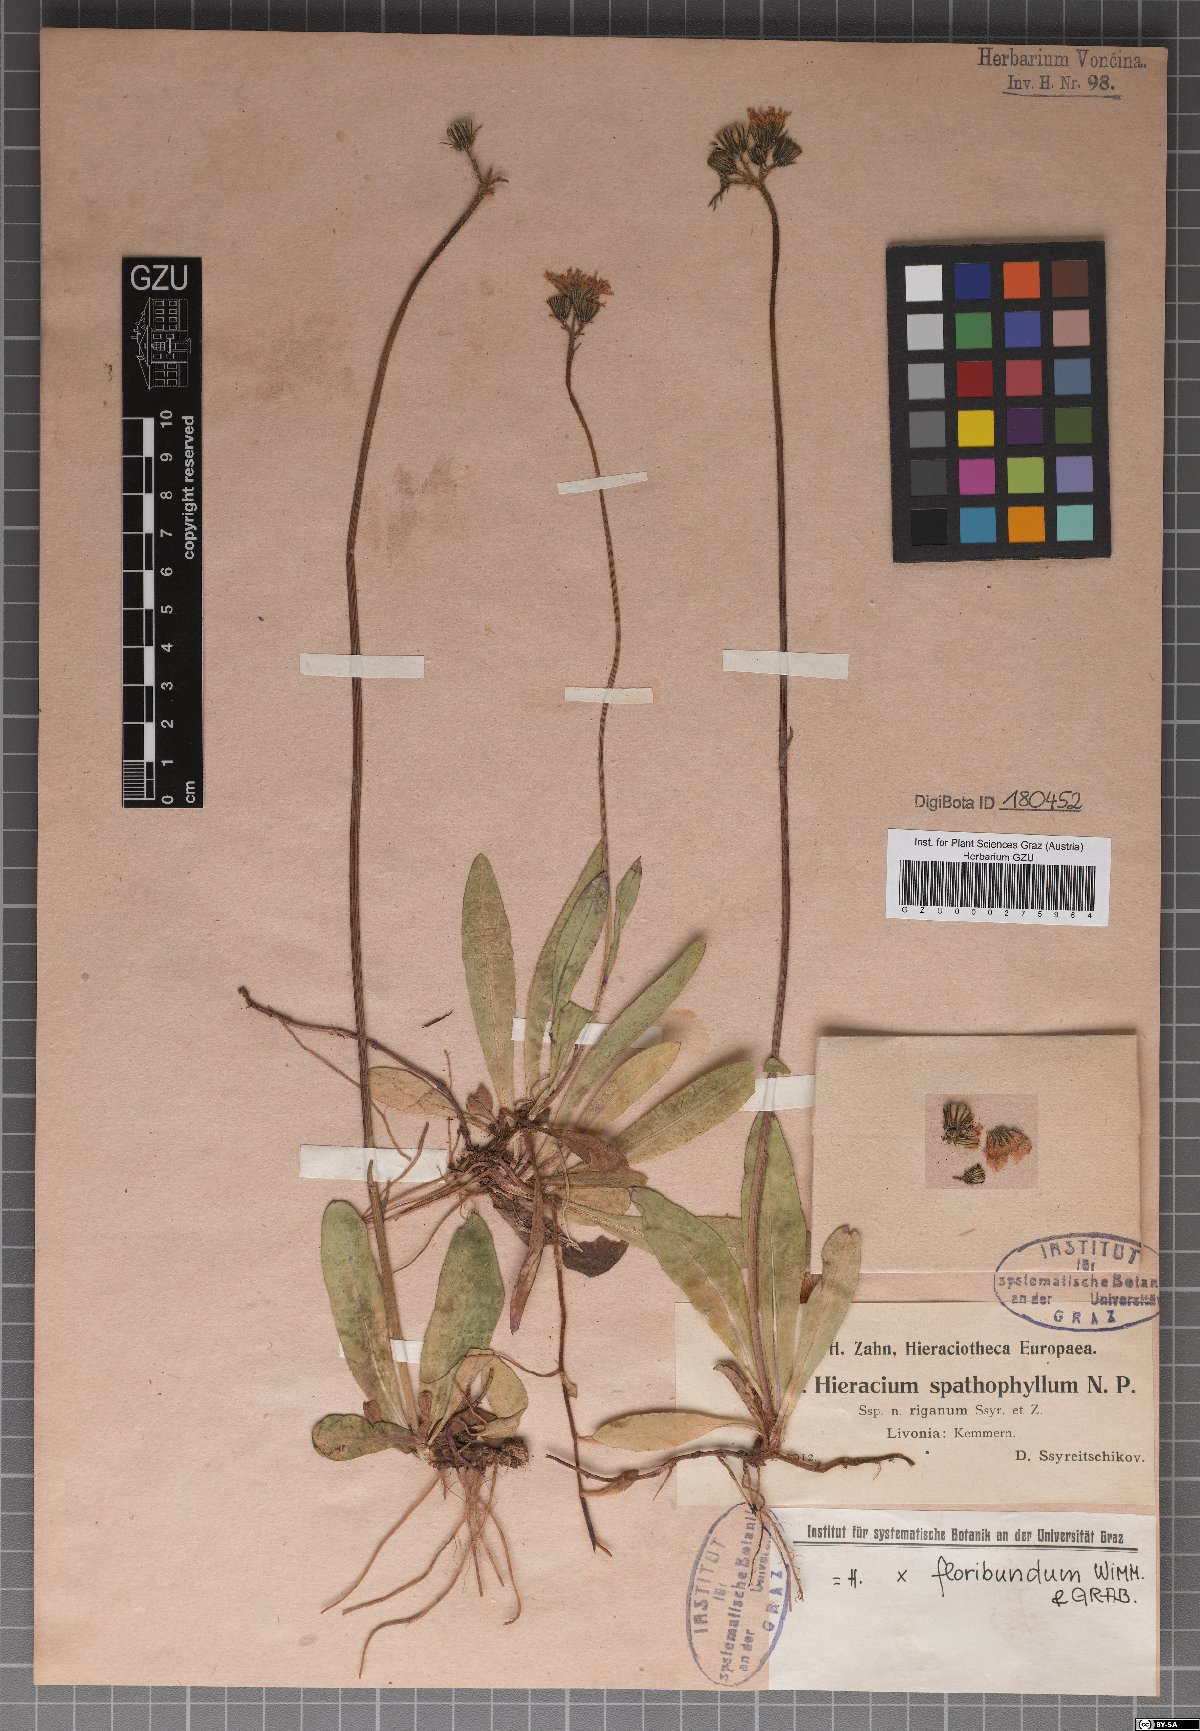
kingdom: Plantae
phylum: Tracheophyta
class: Magnoliopsida
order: Asterales
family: Asteraceae
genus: Pilosella
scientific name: Pilosella longiscapa
